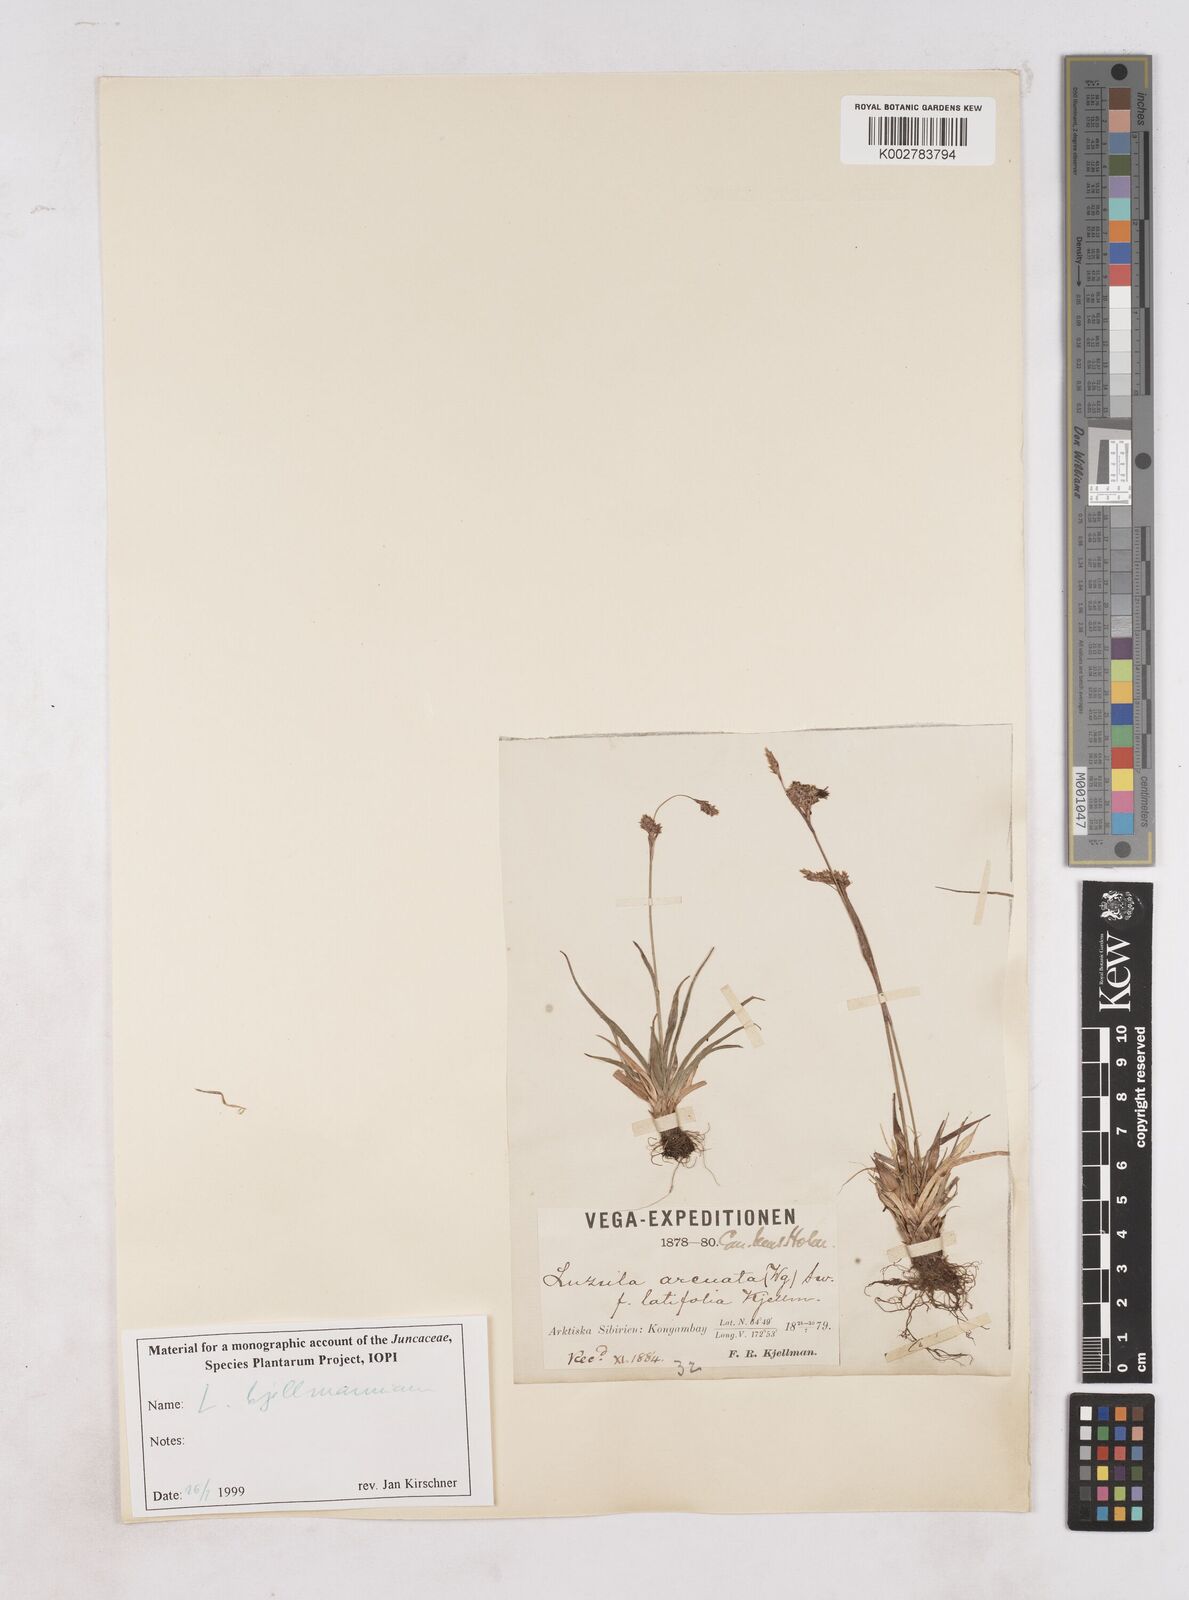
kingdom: Plantae
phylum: Tracheophyta
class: Liliopsida
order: Poales
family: Juncaceae
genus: Luzula
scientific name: Luzula nivalis
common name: Arctic woodrush
